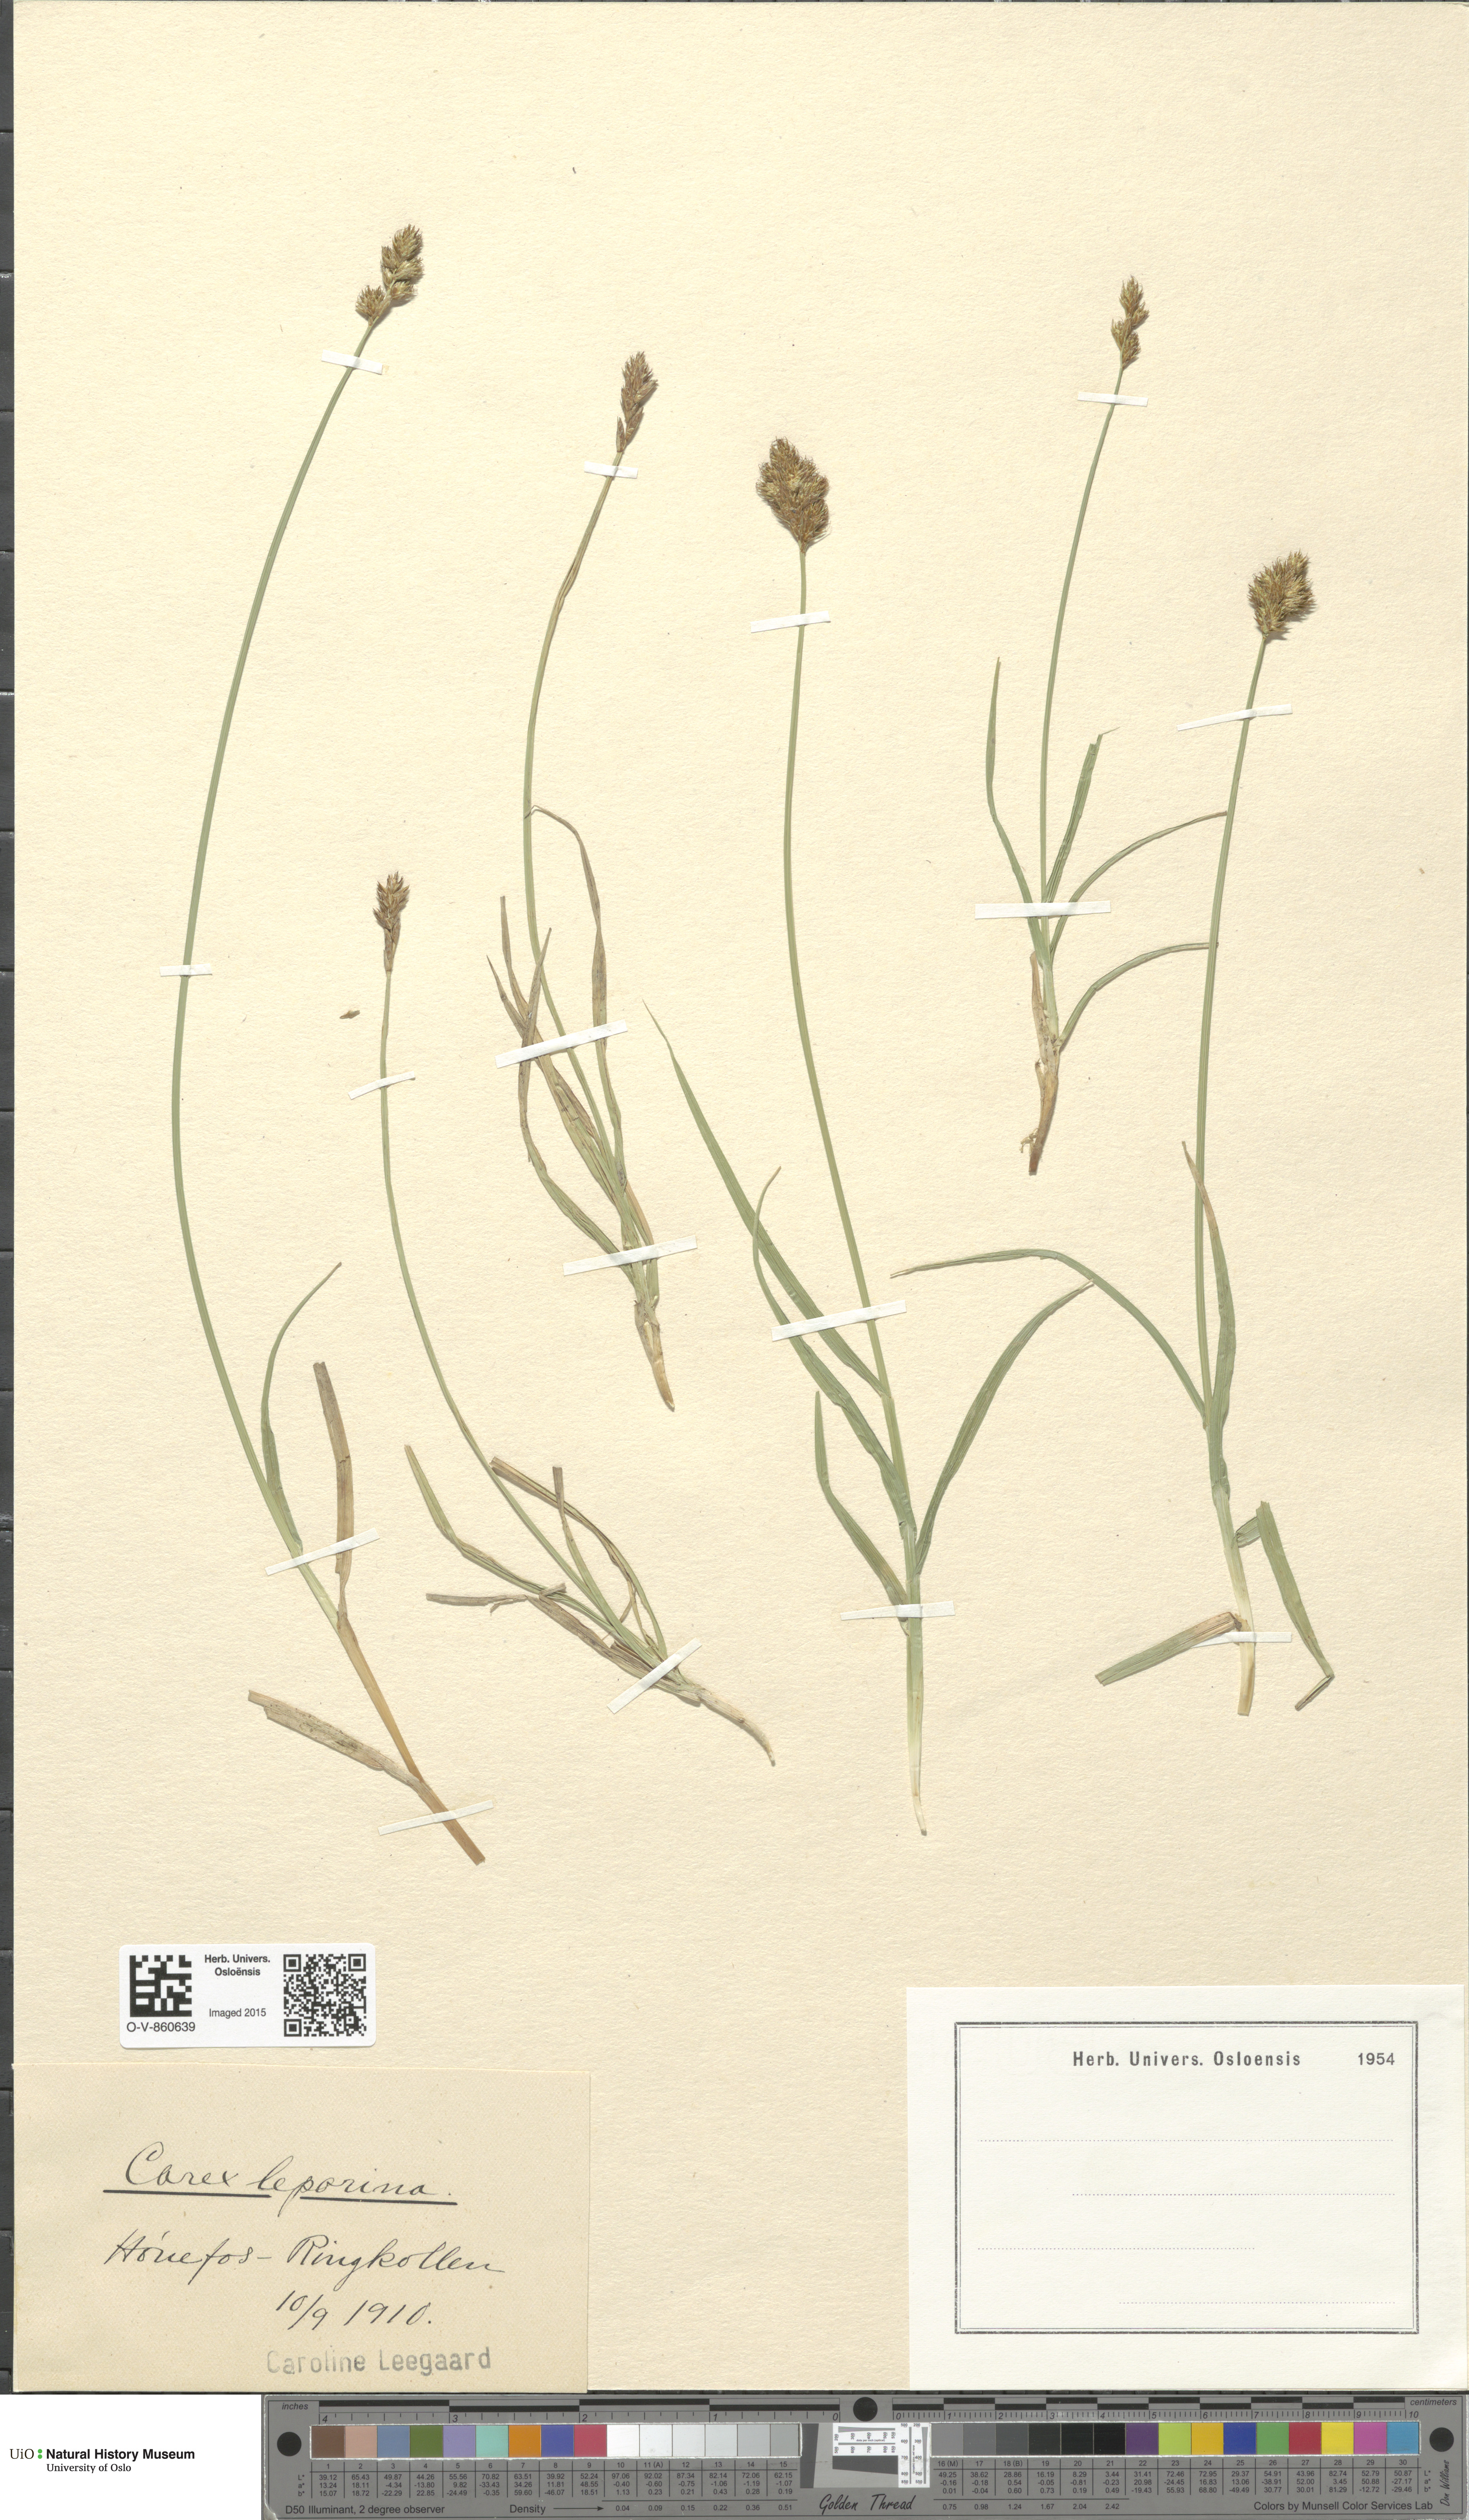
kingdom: Plantae
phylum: Tracheophyta
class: Liliopsida
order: Poales
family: Cyperaceae
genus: Carex
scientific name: Carex leporina
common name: Oval sedge
